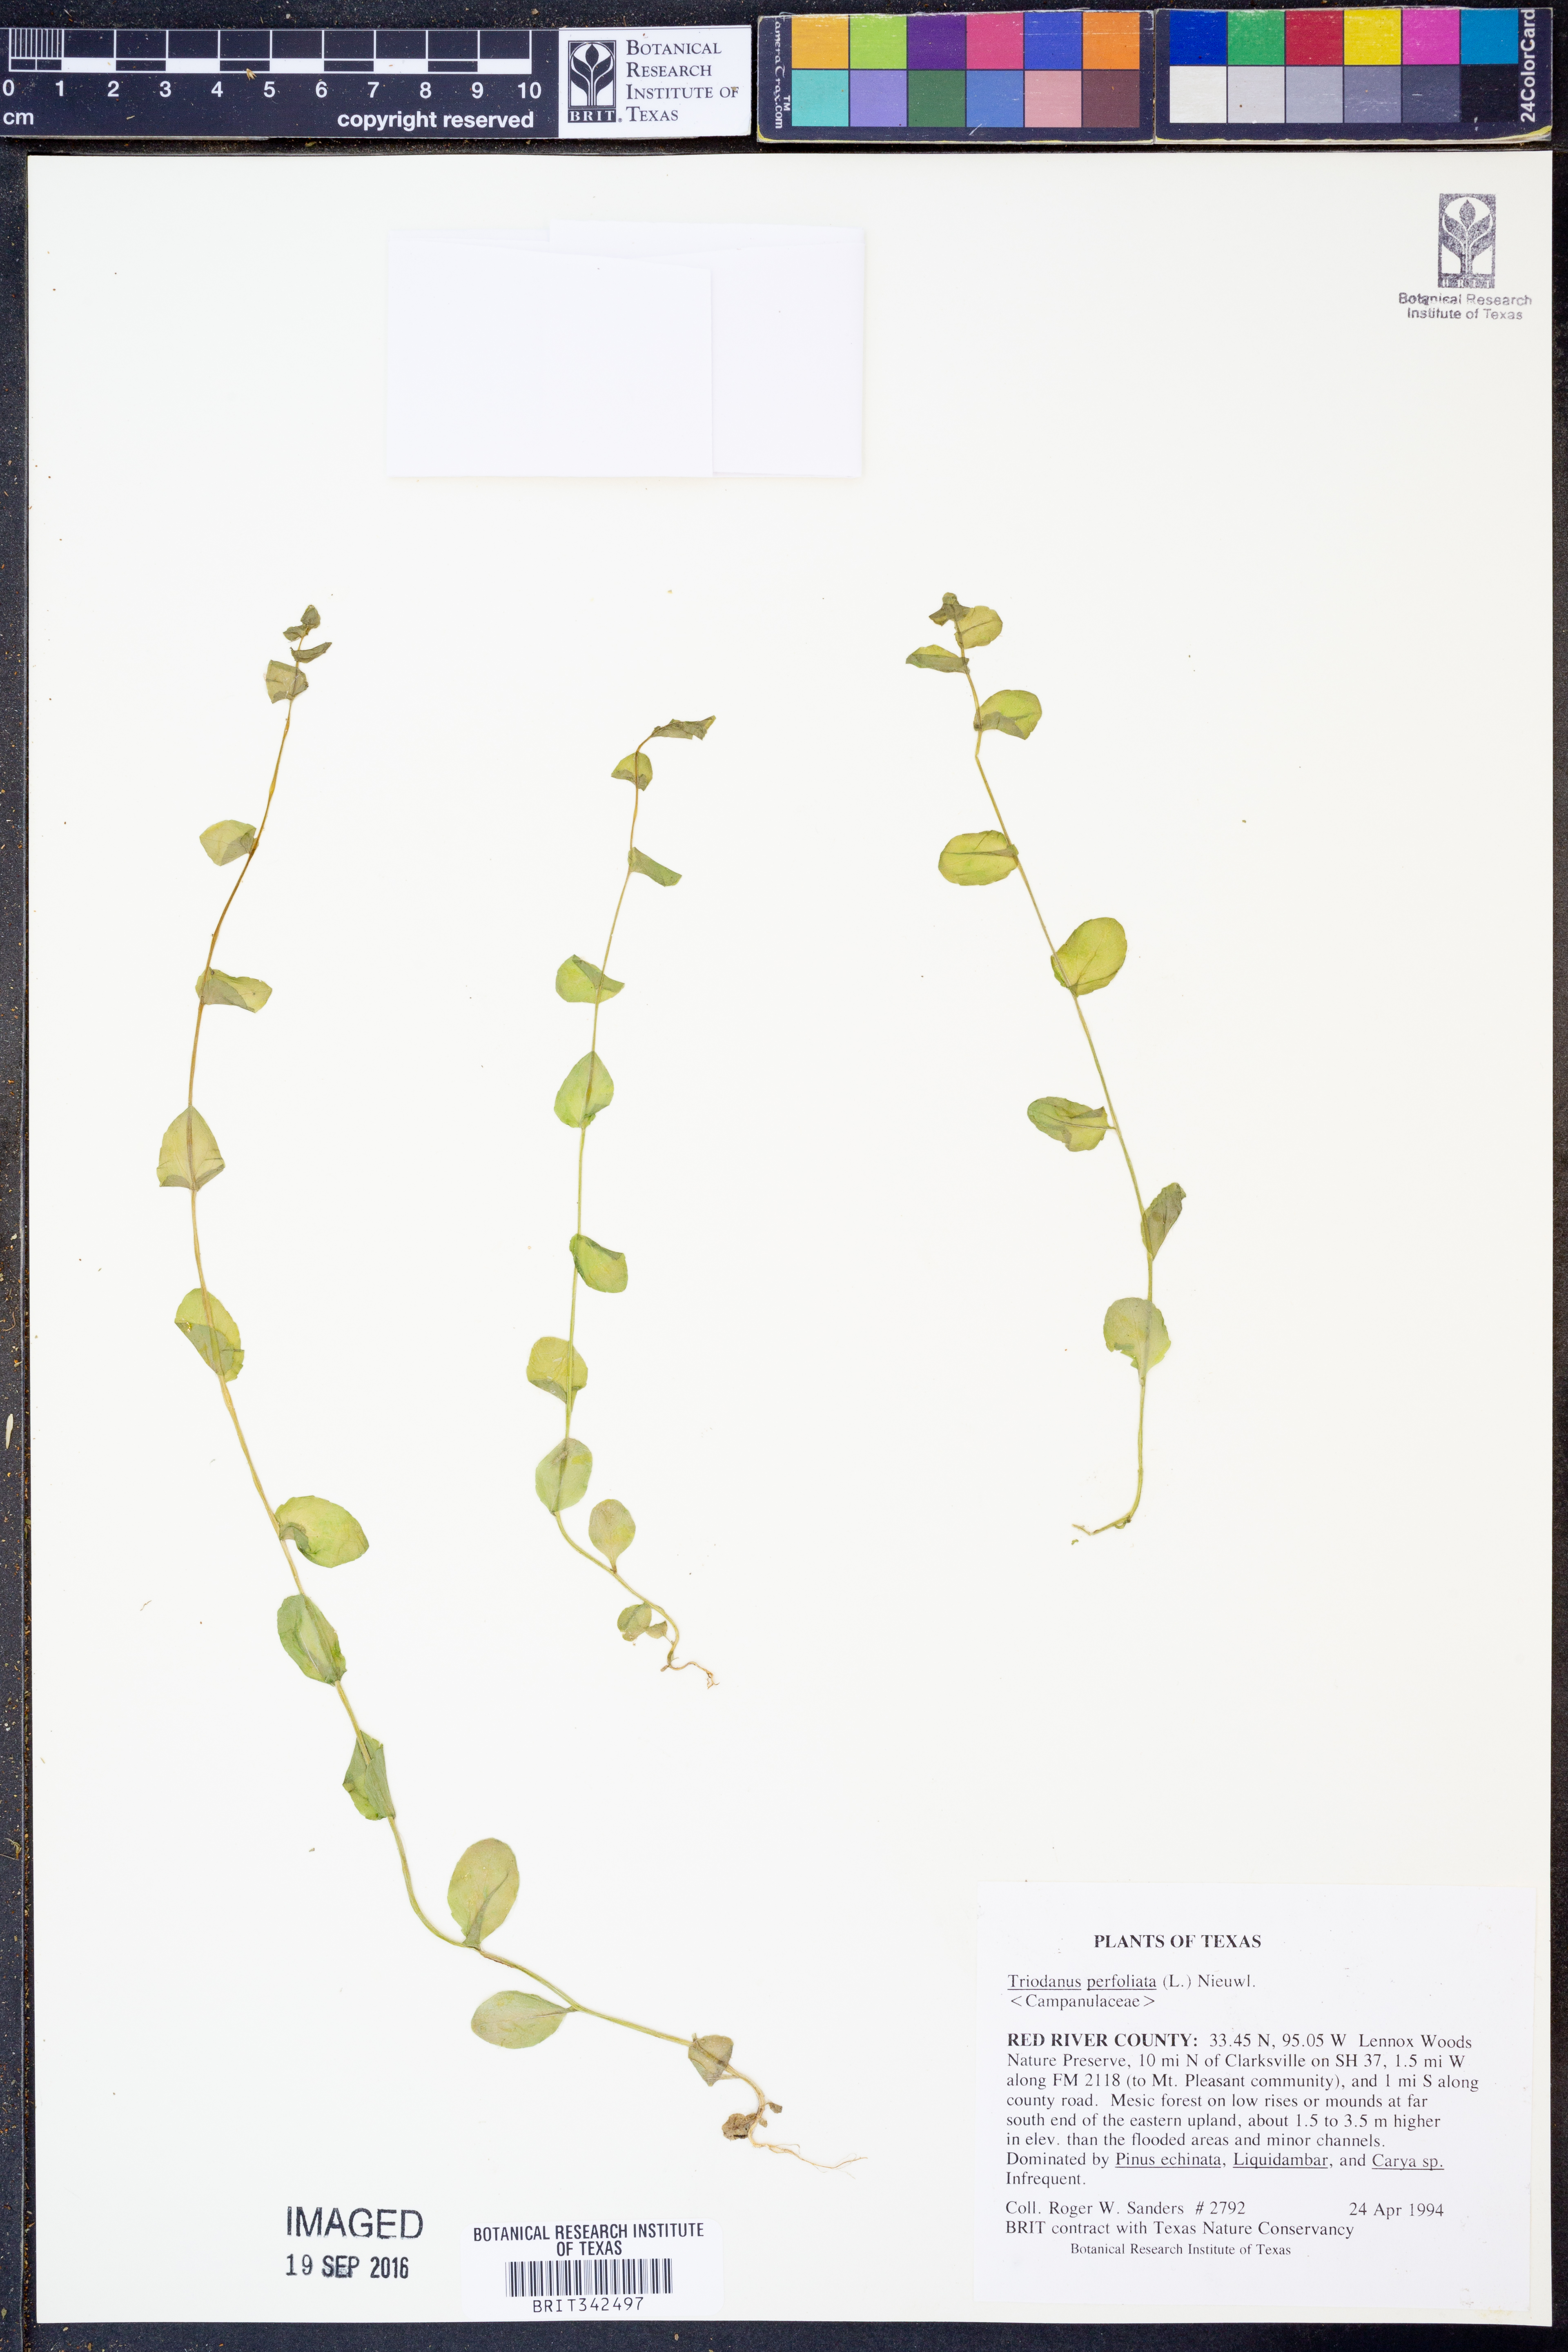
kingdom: Plantae
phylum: Tracheophyta
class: Magnoliopsida
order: Asterales
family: Campanulaceae
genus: Triodanis
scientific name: Triodanis perfoliata
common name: Clasping venus' looking-glass
